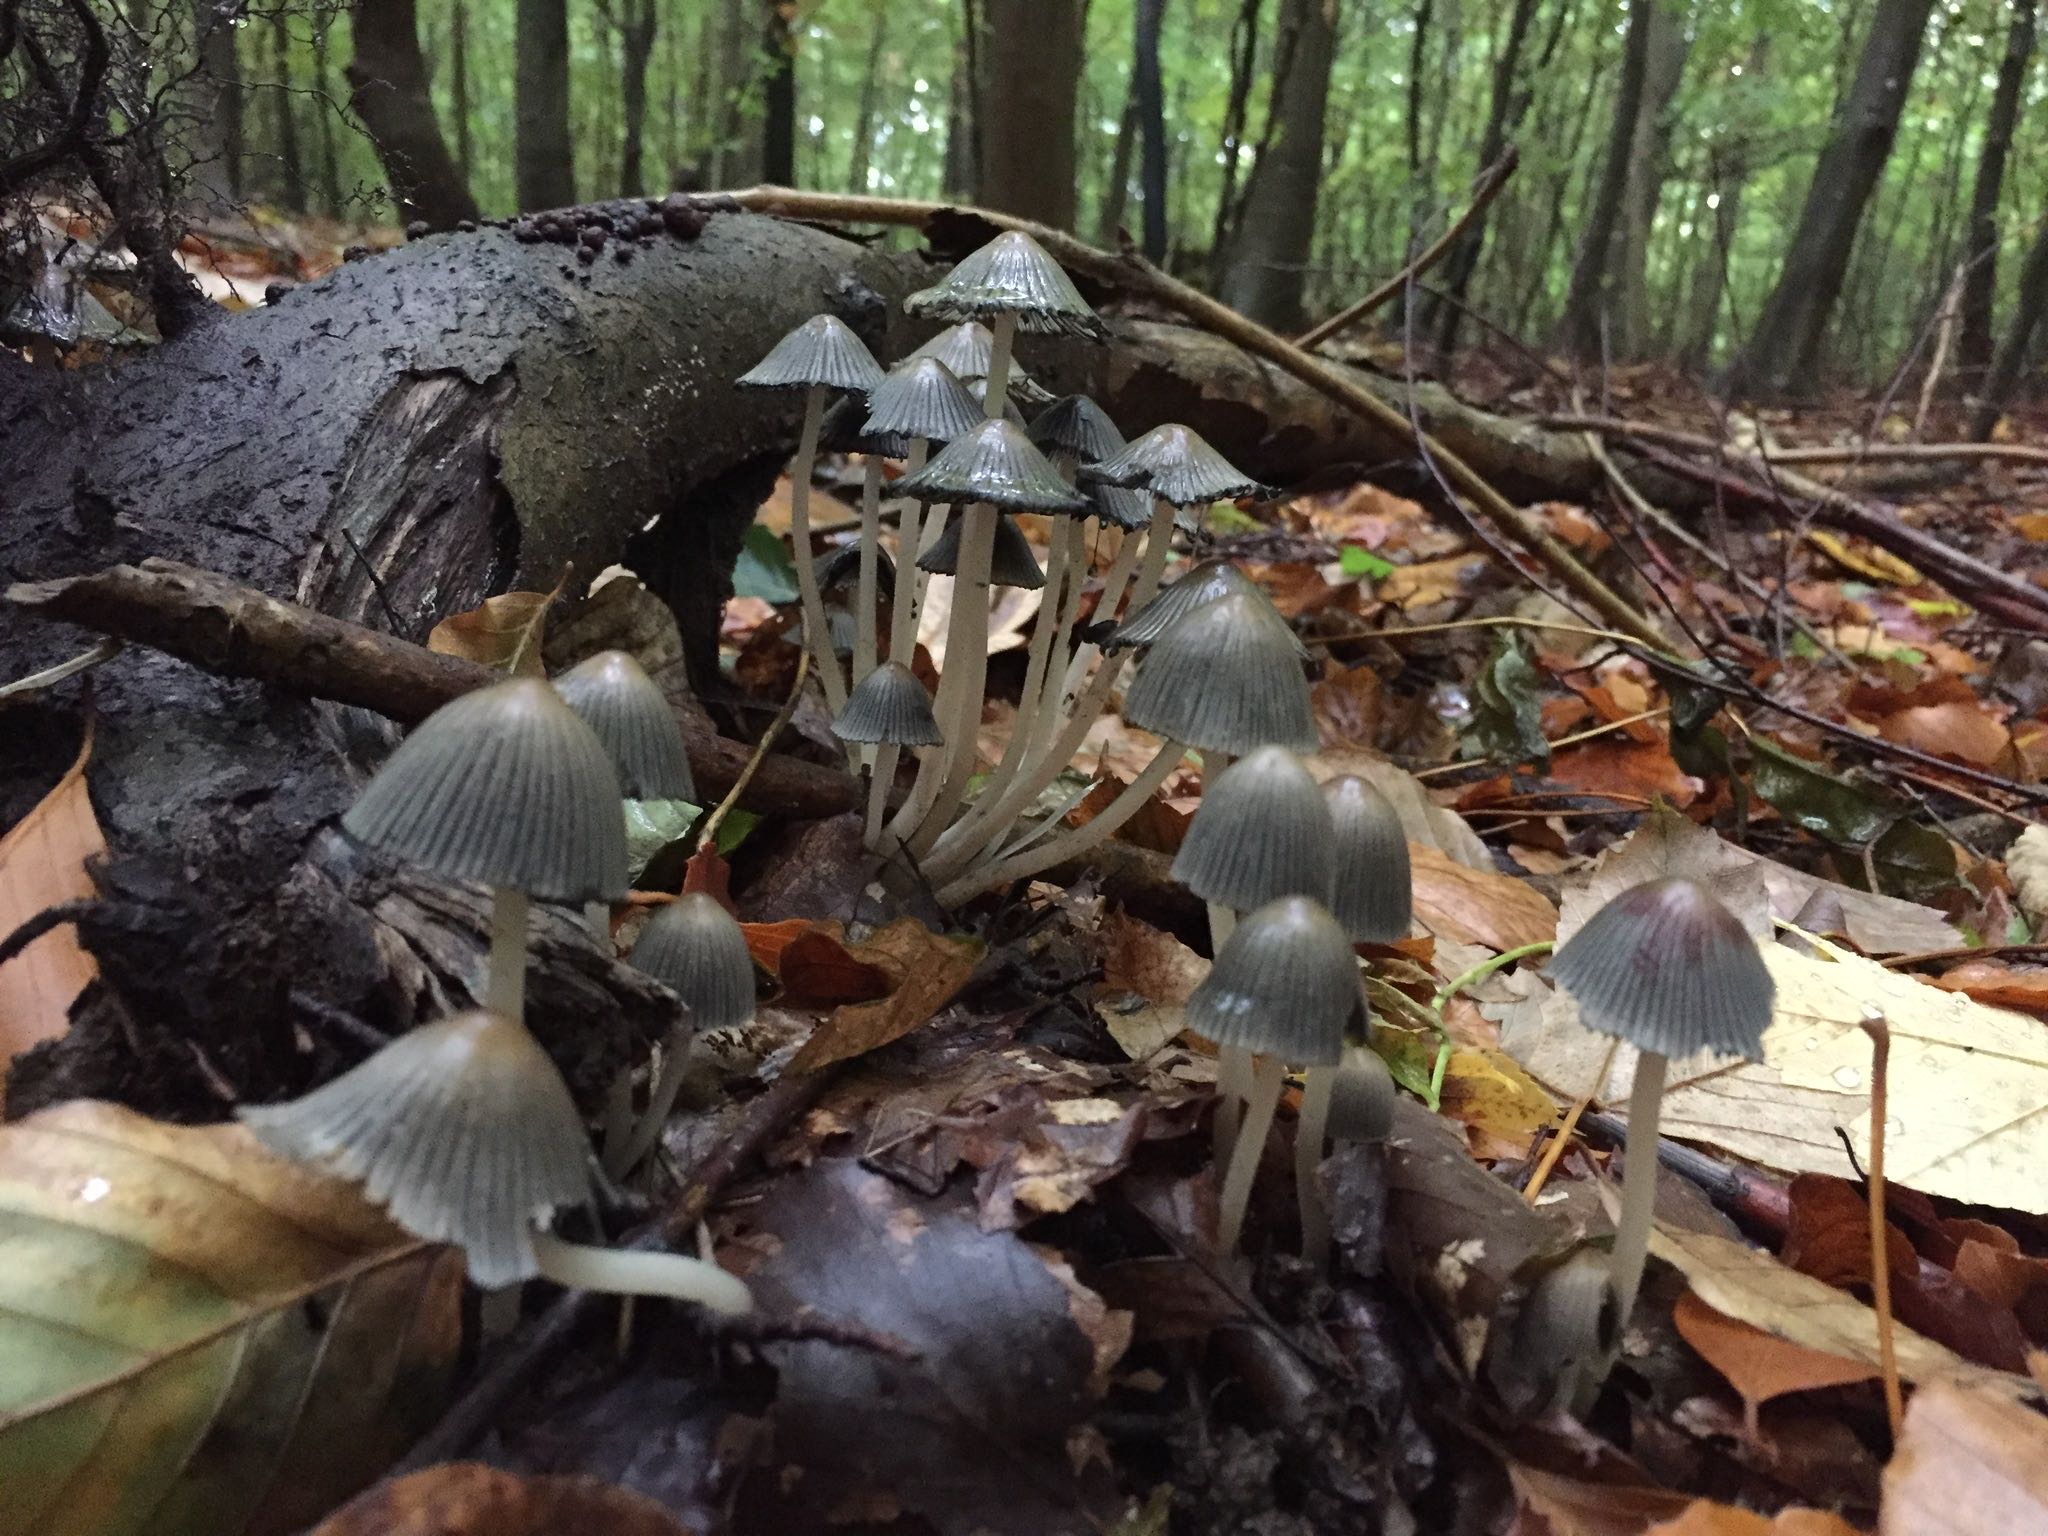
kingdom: Fungi
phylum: Basidiomycota
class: Agaricomycetes
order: Agaricales
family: Psathyrellaceae
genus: Coprinellus
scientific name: Coprinellus
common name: blækhat
